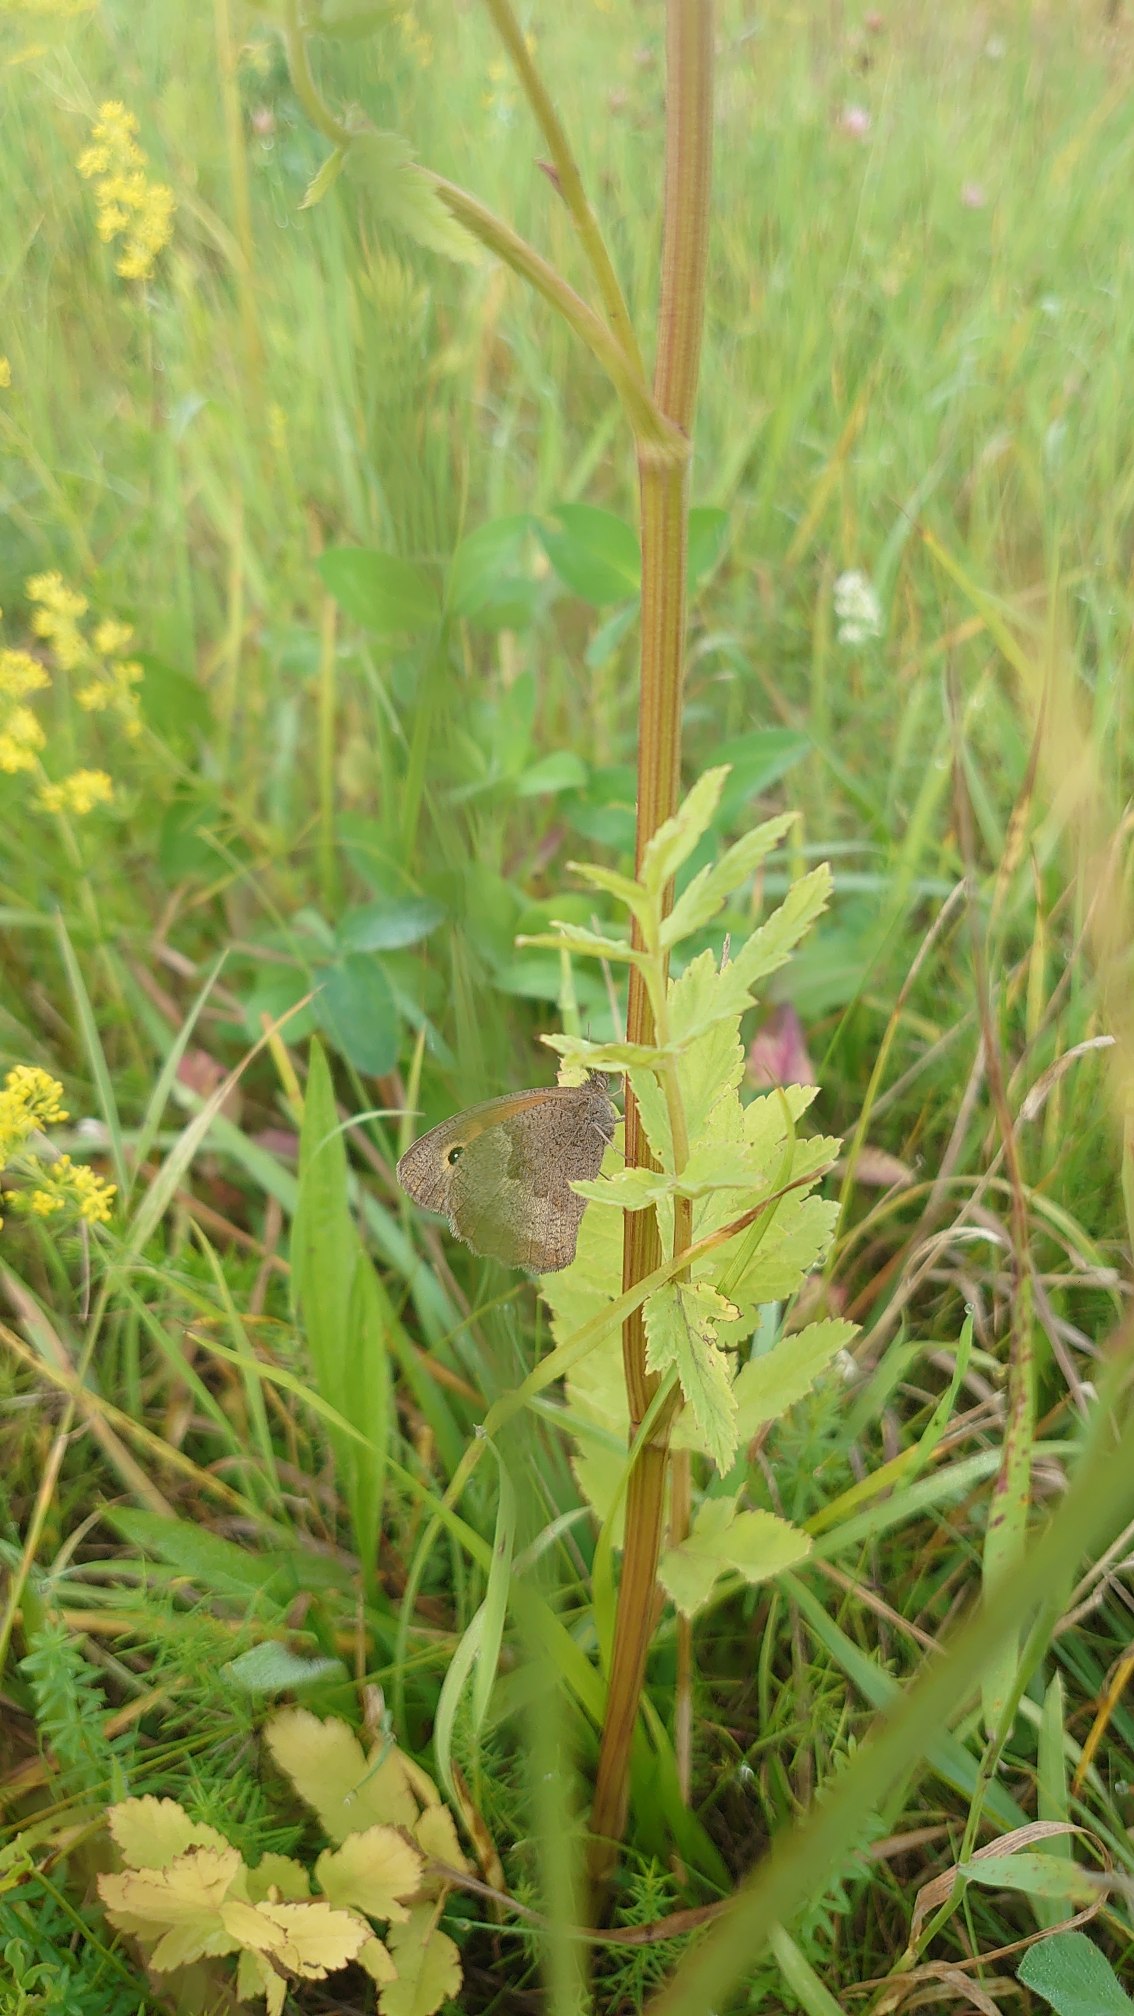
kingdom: Animalia
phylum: Arthropoda
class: Insecta
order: Lepidoptera
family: Nymphalidae
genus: Maniola
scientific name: Maniola jurtina
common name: Græsrandøje
